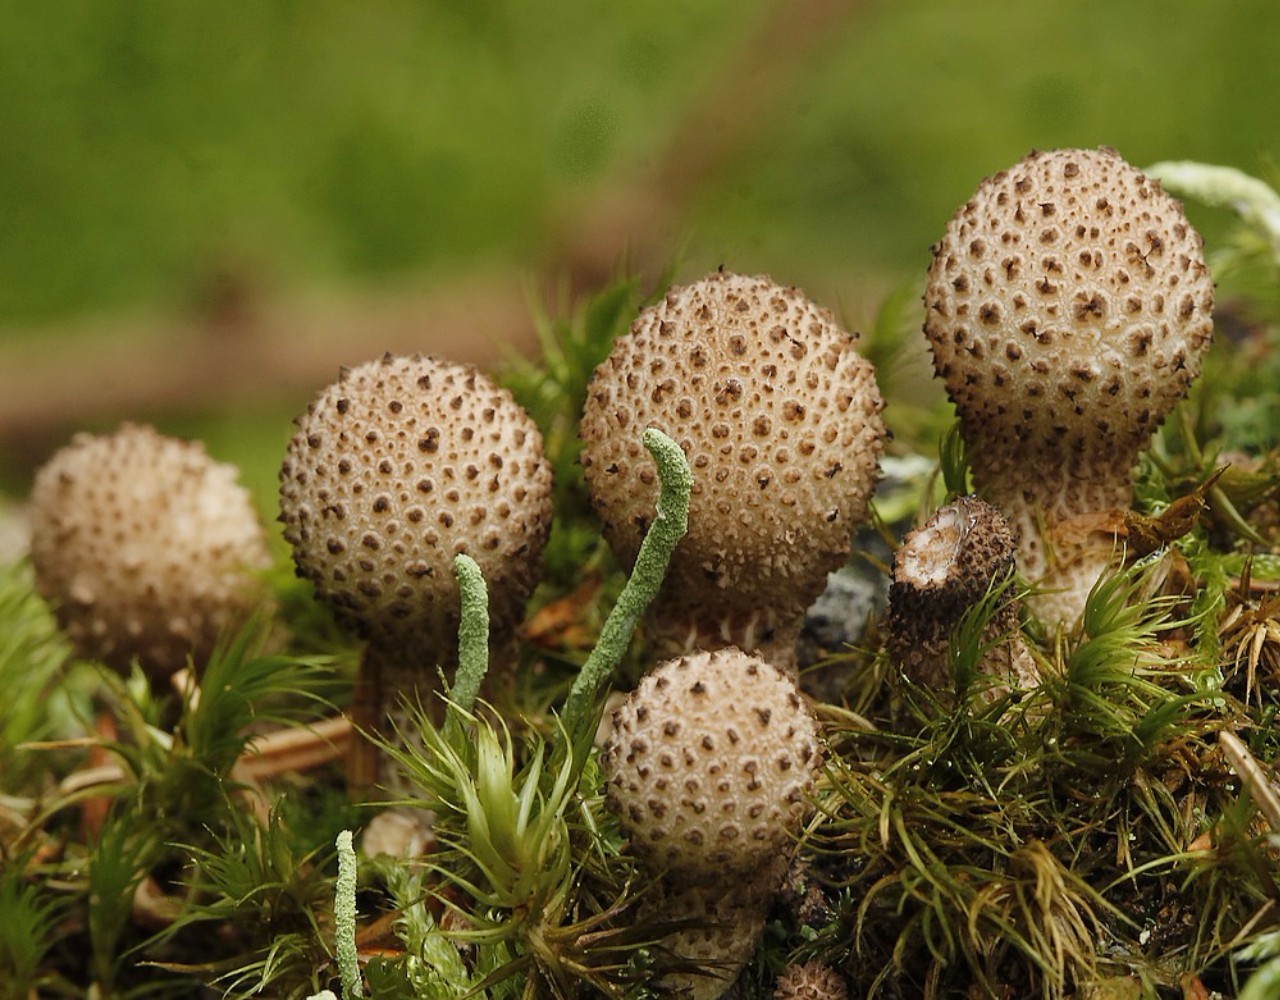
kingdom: Fungi
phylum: Basidiomycota
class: Agaricomycetes
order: Agaricales
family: Lycoperdaceae
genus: Apioperdon
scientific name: Apioperdon pyriforme
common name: pære-støvbold
